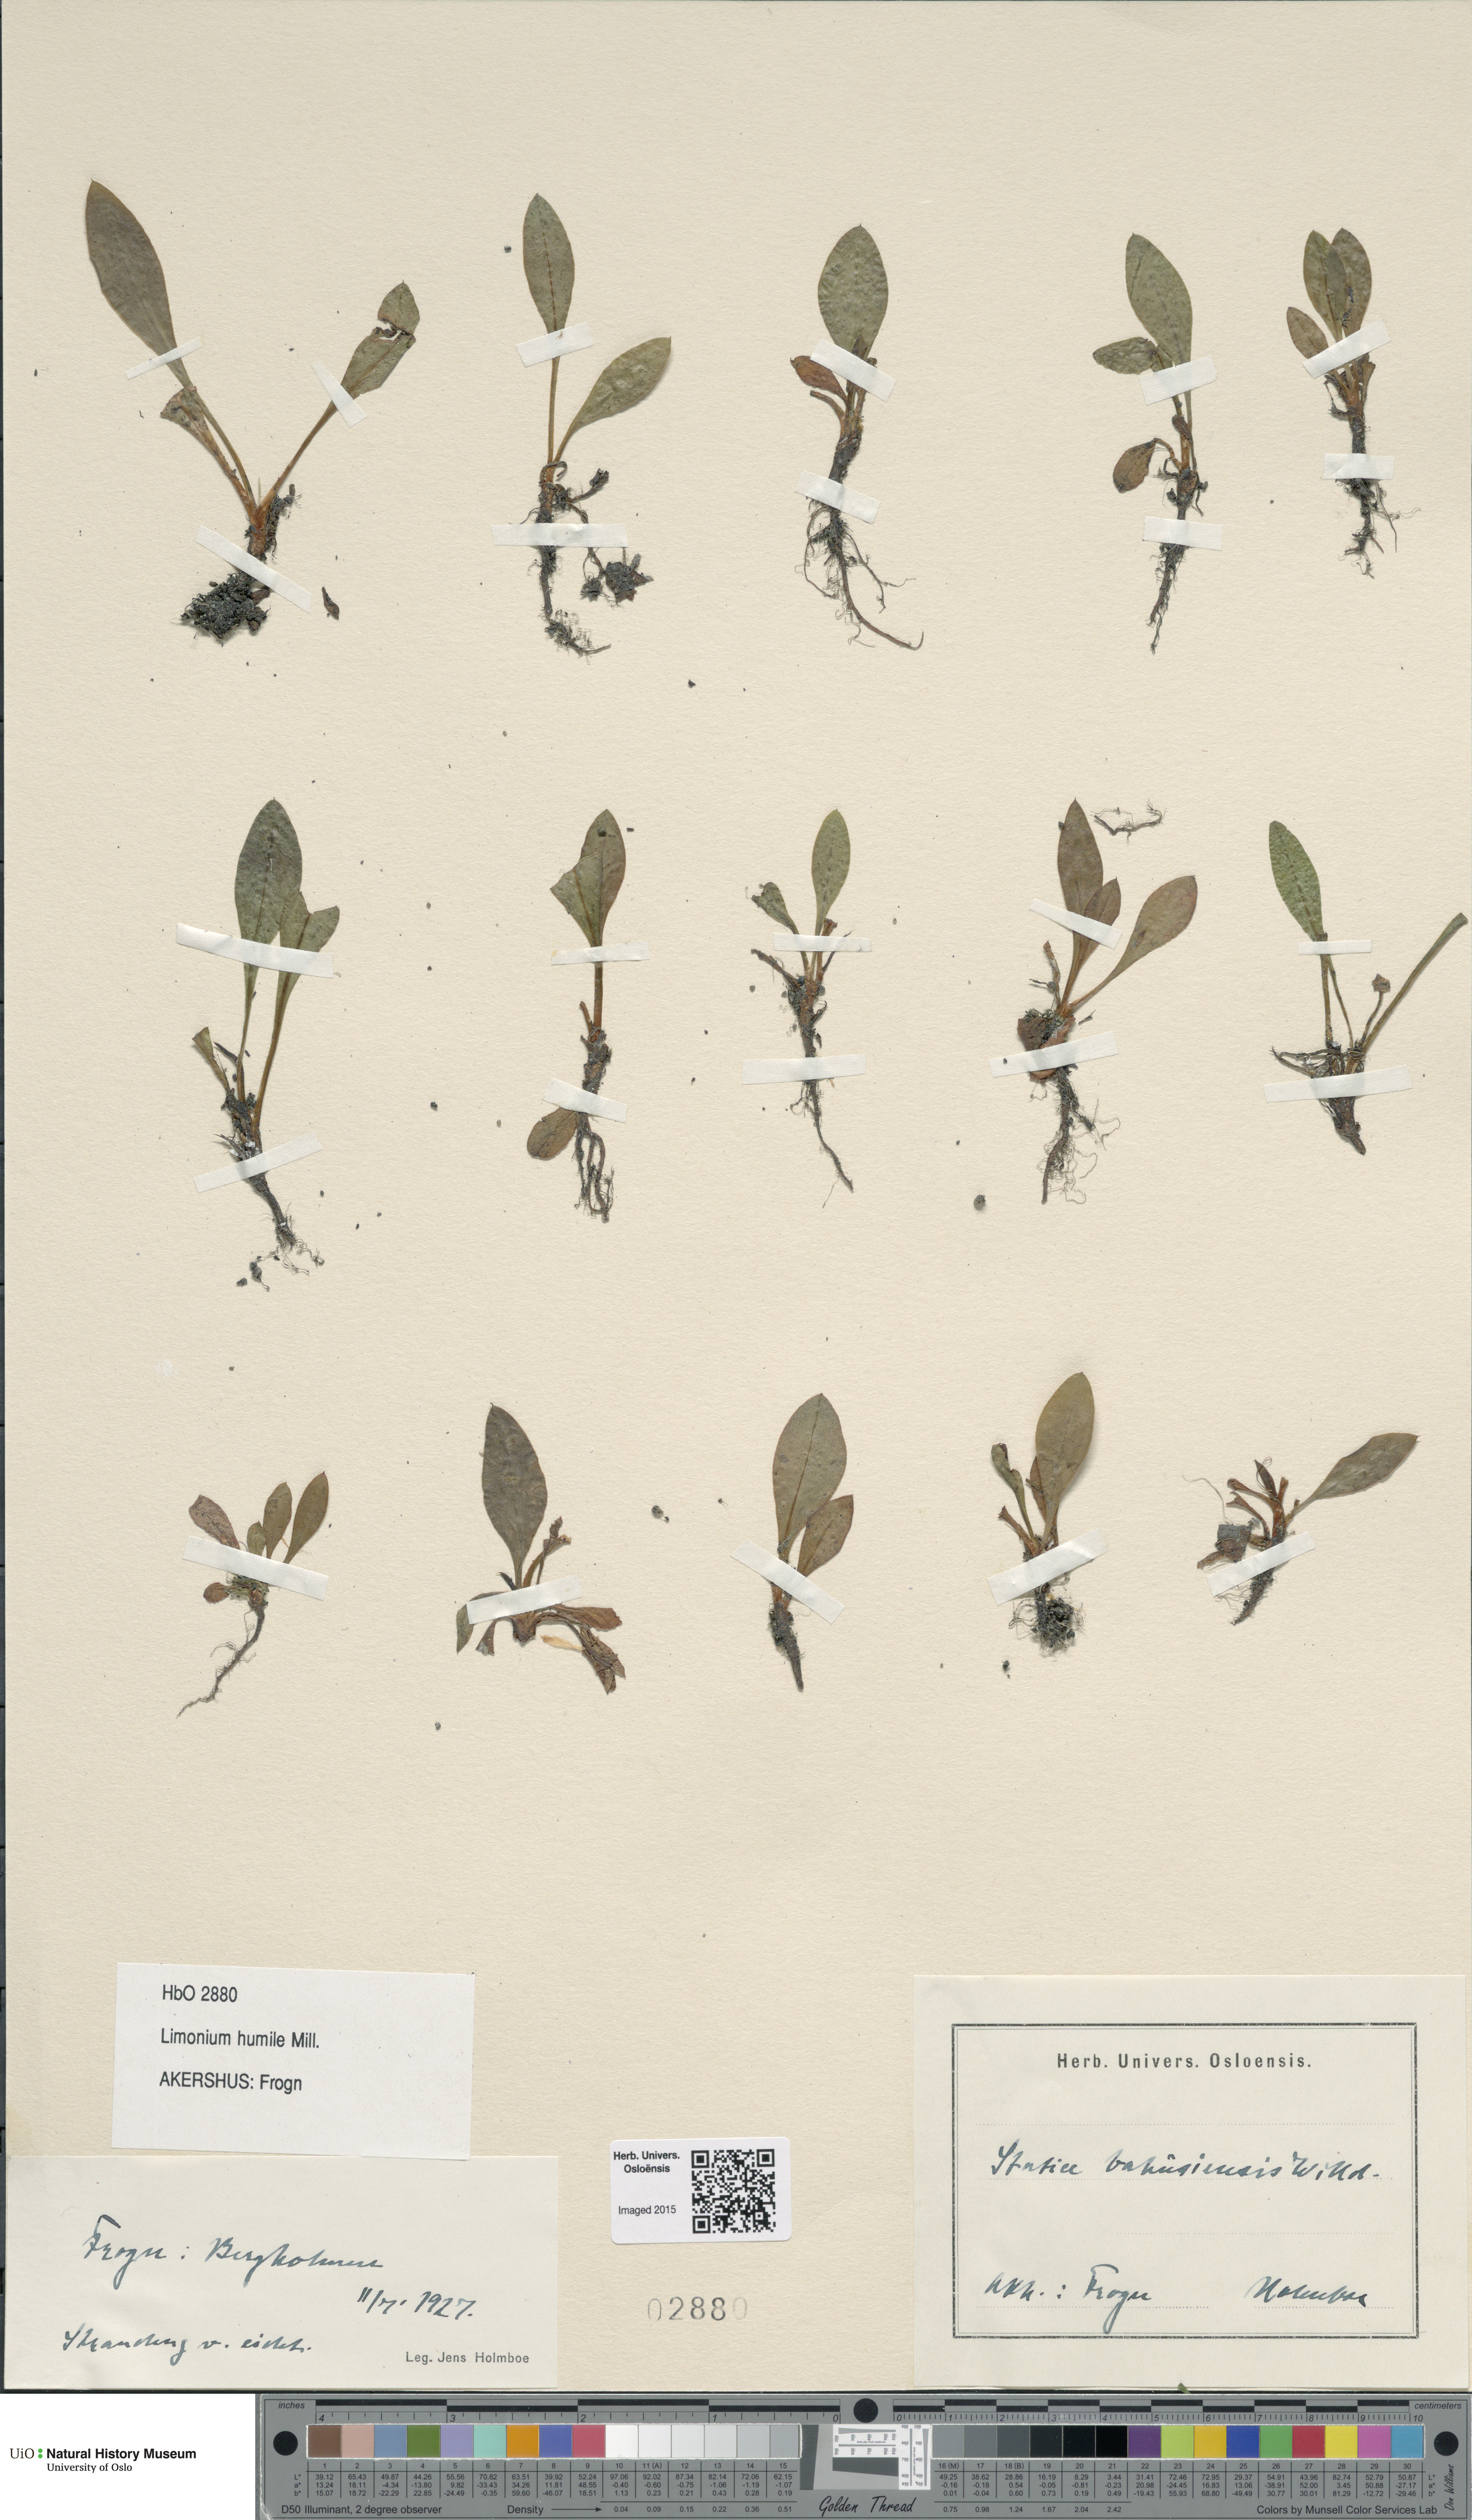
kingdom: Plantae
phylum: Tracheophyta
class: Magnoliopsida
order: Caryophyllales
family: Plumbaginaceae
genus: Limonium
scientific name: Limonium humile
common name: Lax-flowered sea-lavender
